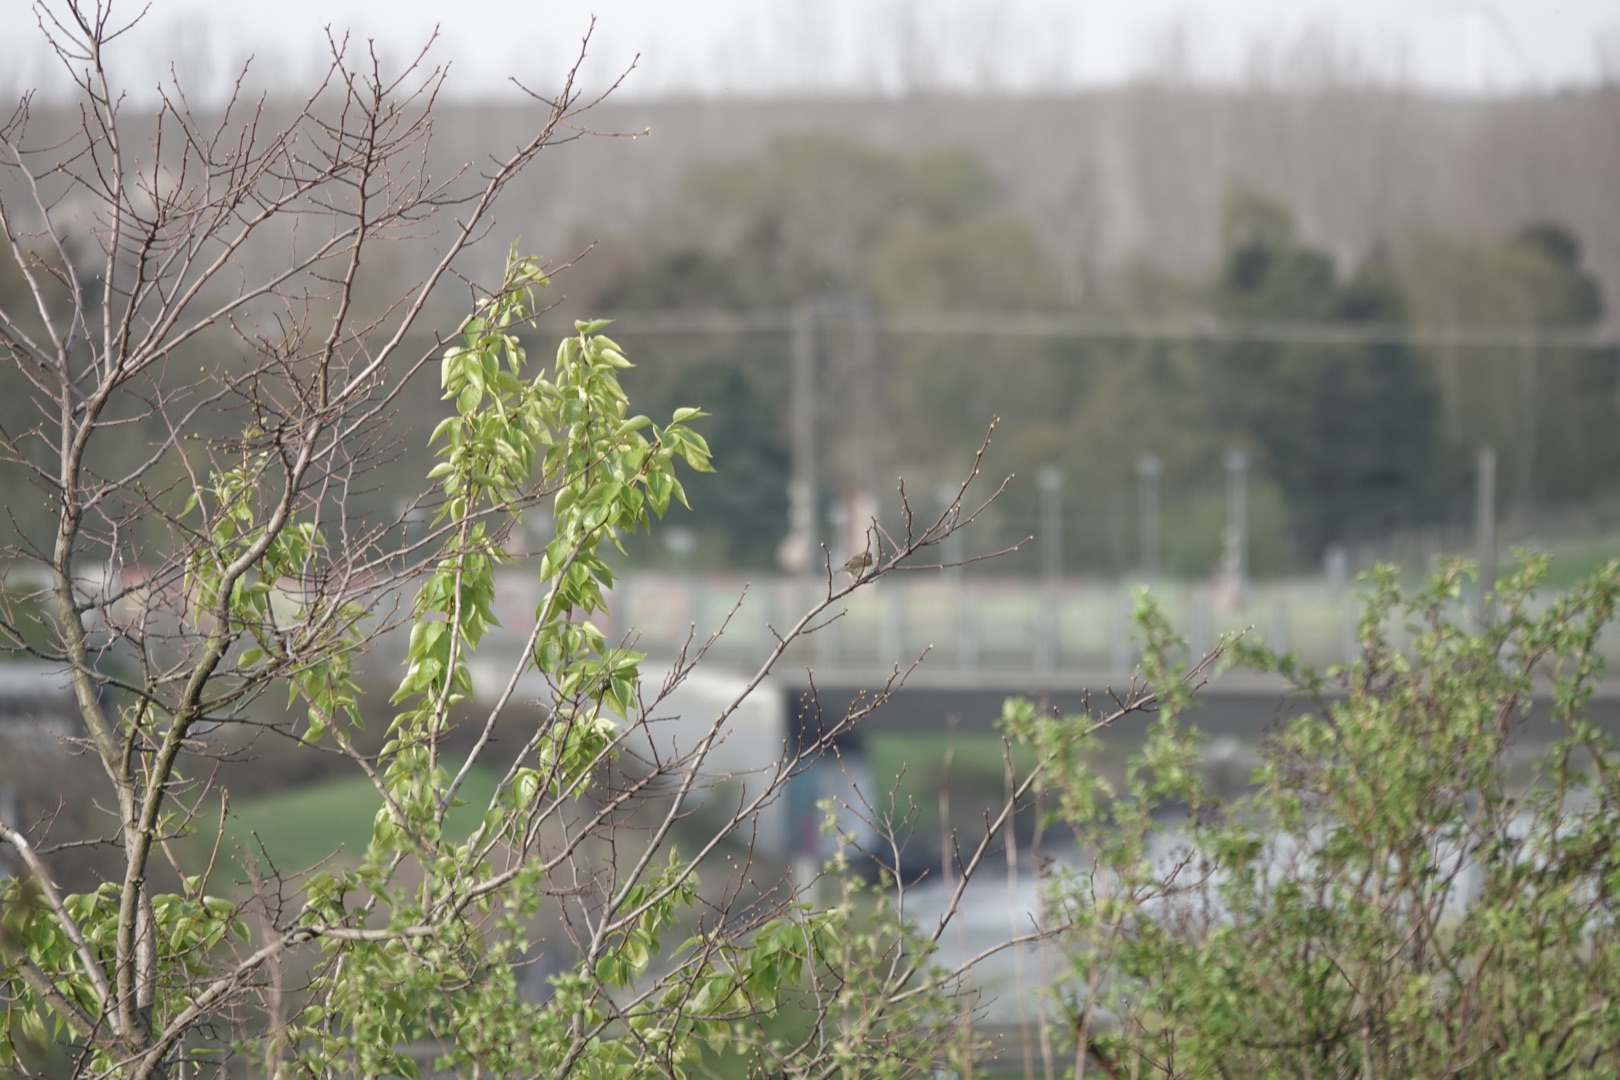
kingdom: Animalia
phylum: Chordata
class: Aves
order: Passeriformes
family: Phylloscopidae
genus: Phylloscopus
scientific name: Phylloscopus collybita
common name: Gransanger
